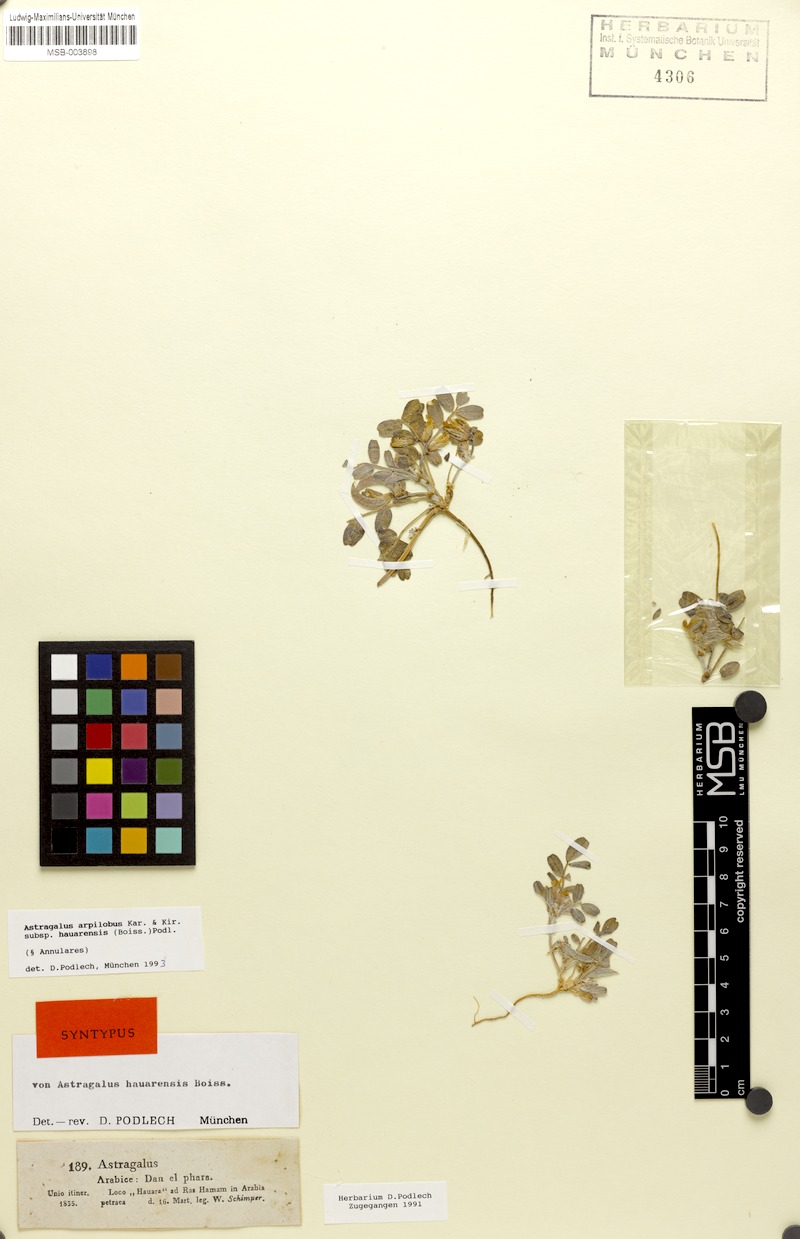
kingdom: Plantae
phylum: Tracheophyta
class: Magnoliopsida
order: Fabales
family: Fabaceae
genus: Astragalus
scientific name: Astragalus arpilobus
